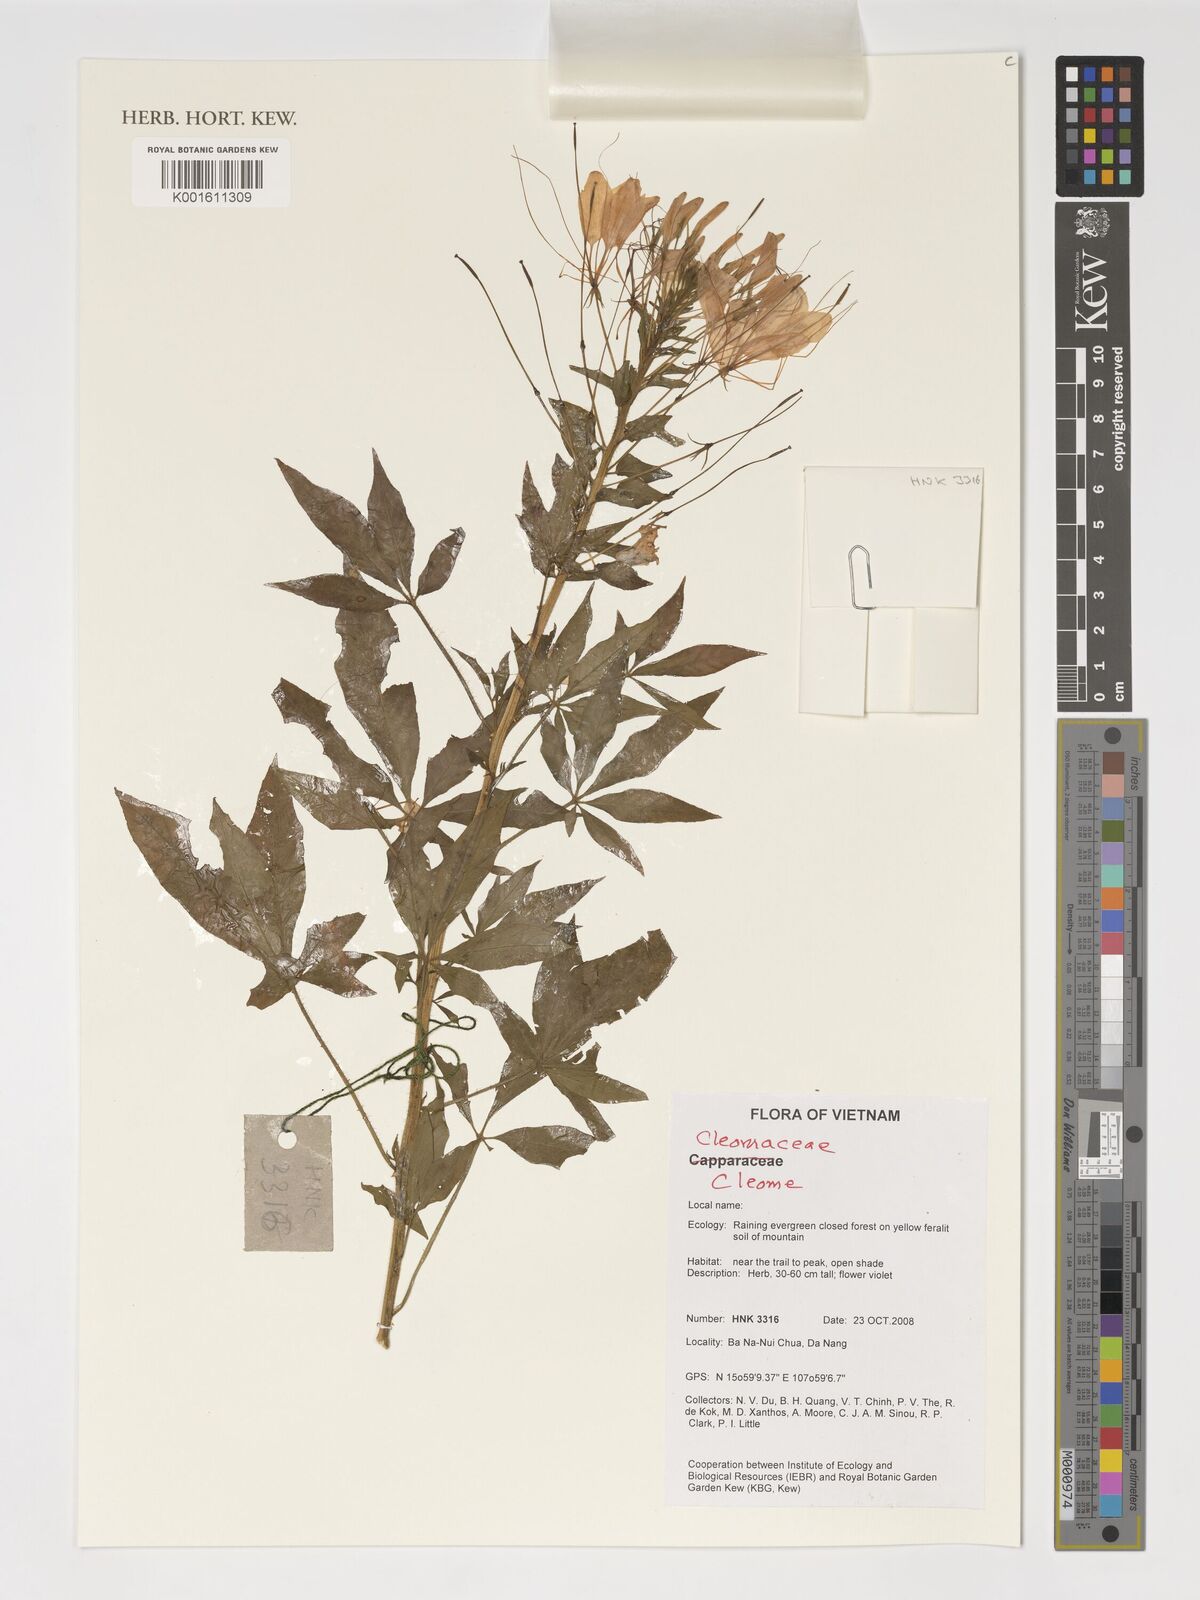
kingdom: Plantae
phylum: Tracheophyta
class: Magnoliopsida
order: Brassicales
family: Cleomaceae
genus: Cleome
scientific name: Cleome
